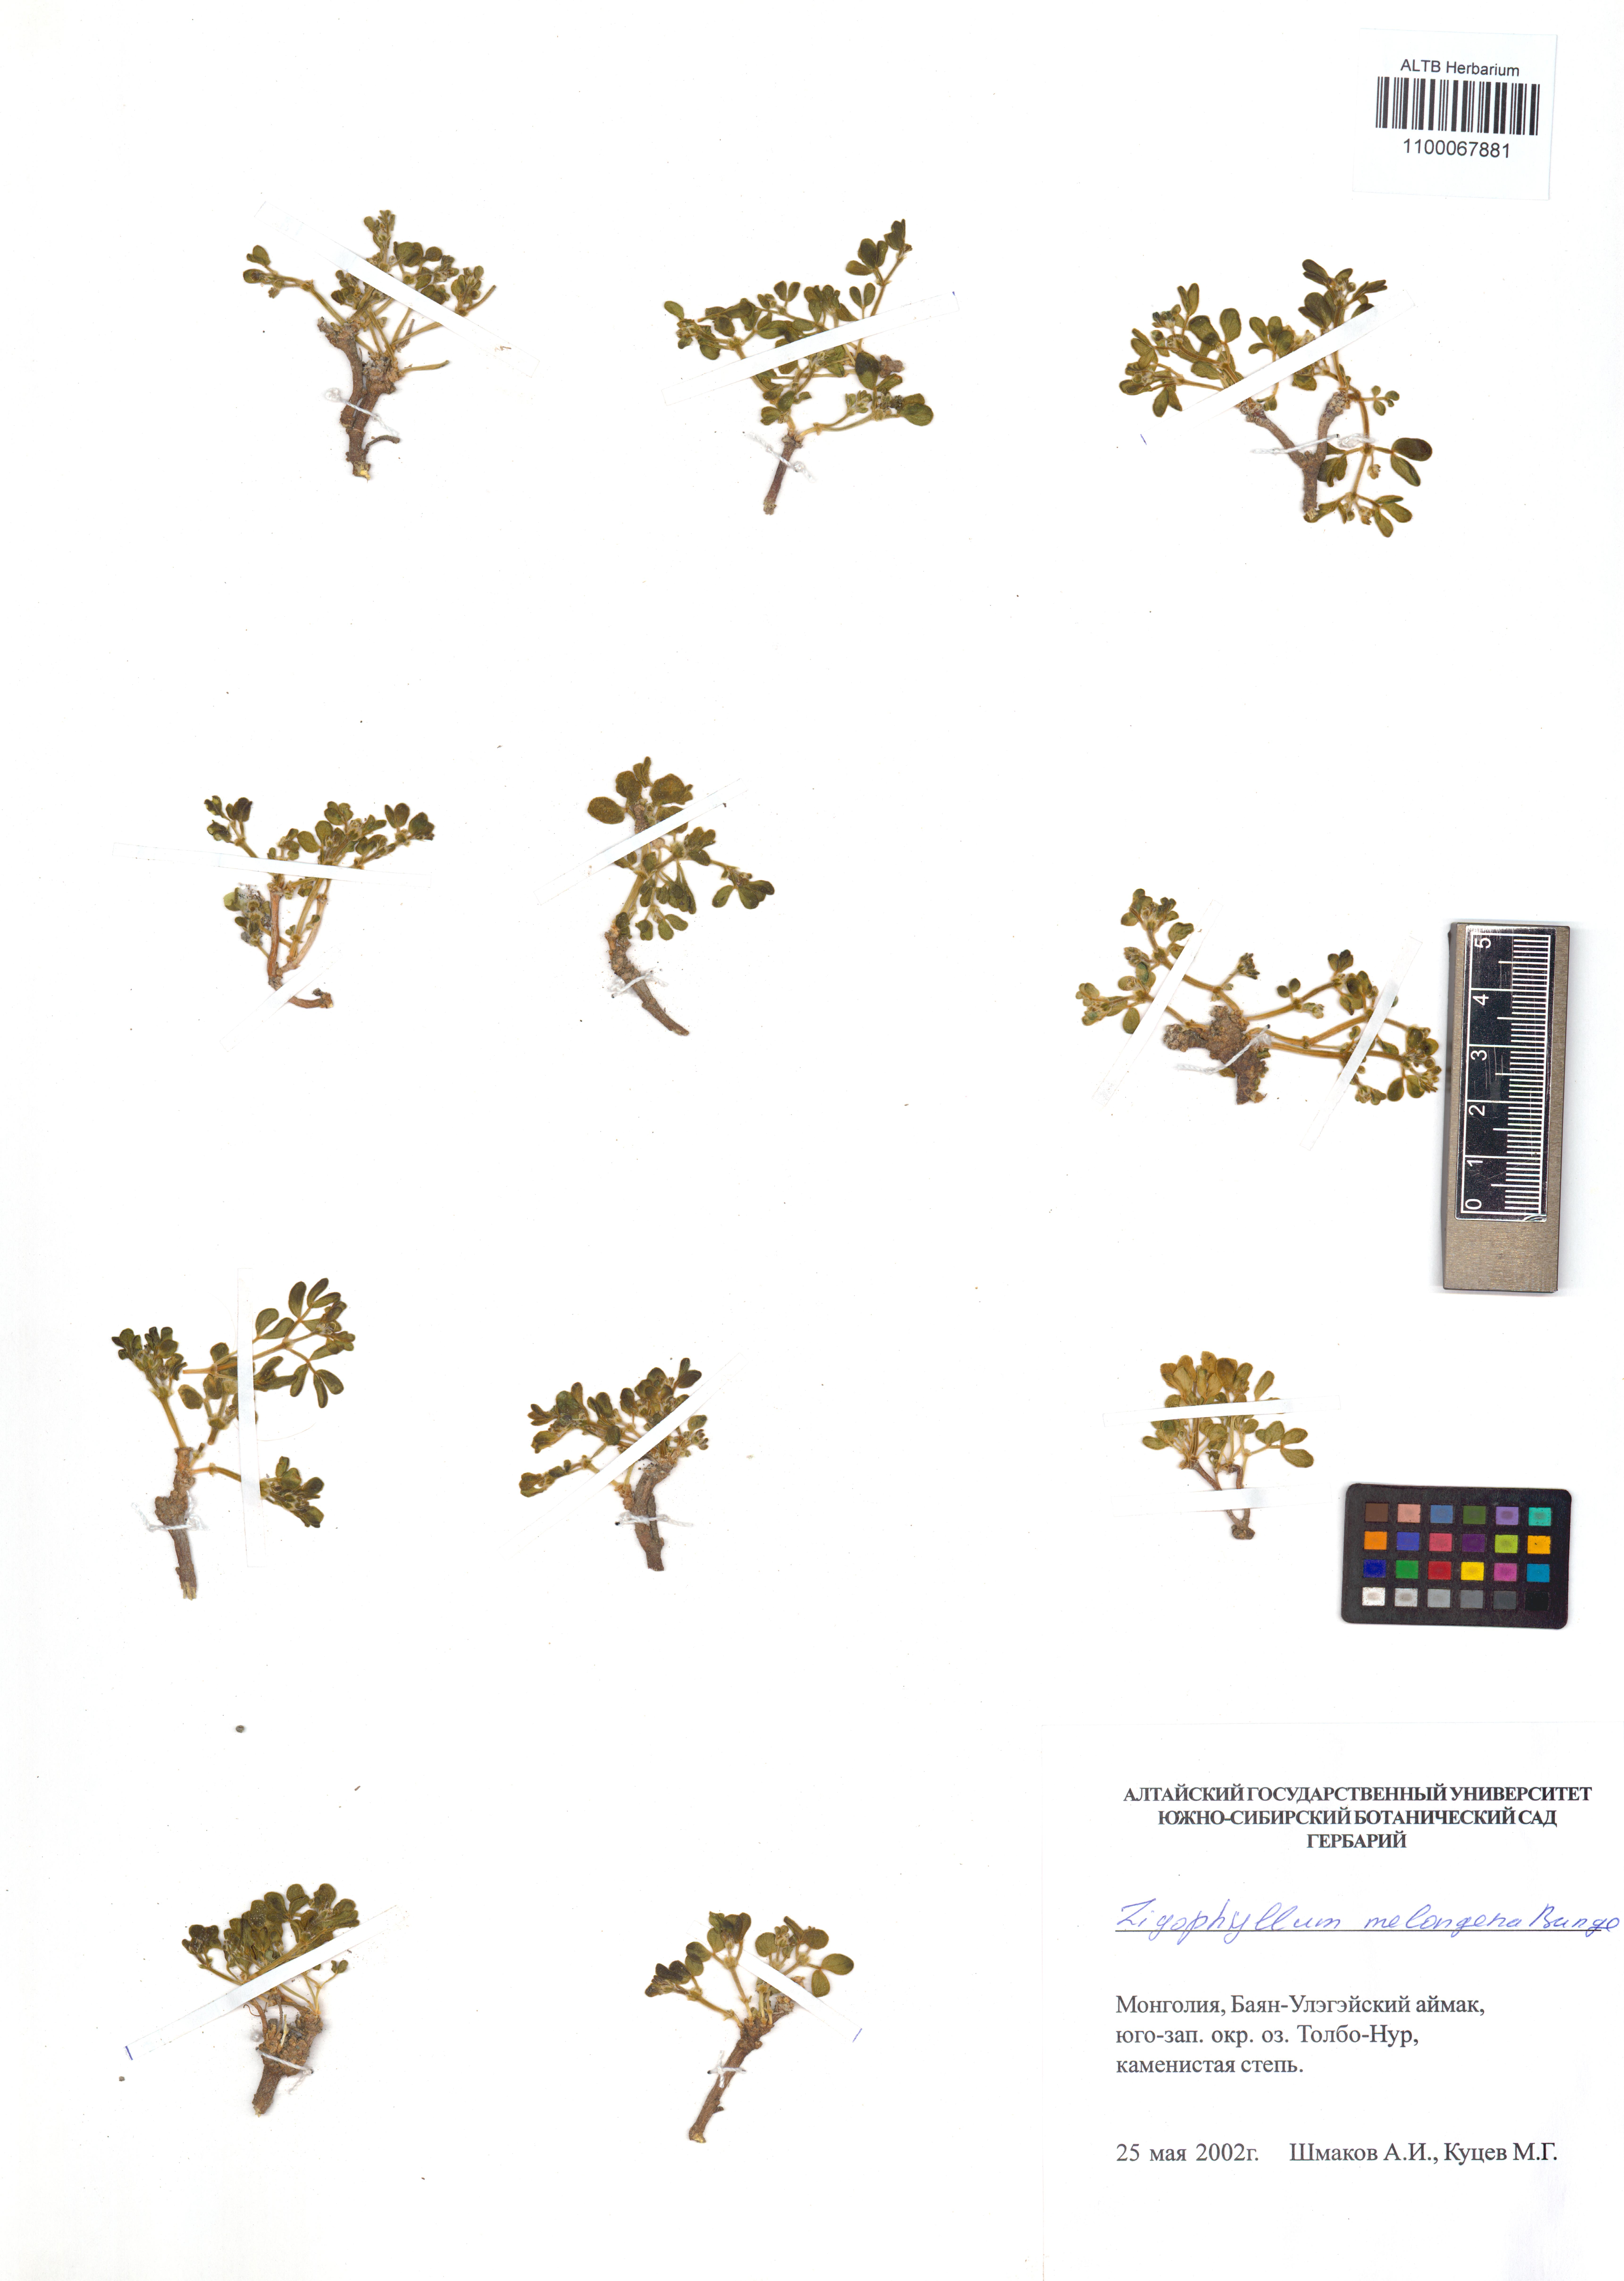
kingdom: Plantae
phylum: Tracheophyta
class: Magnoliopsida
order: Zygophyllales
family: Zygophyllaceae
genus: Zygophyllum
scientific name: Zygophyllum melongena
